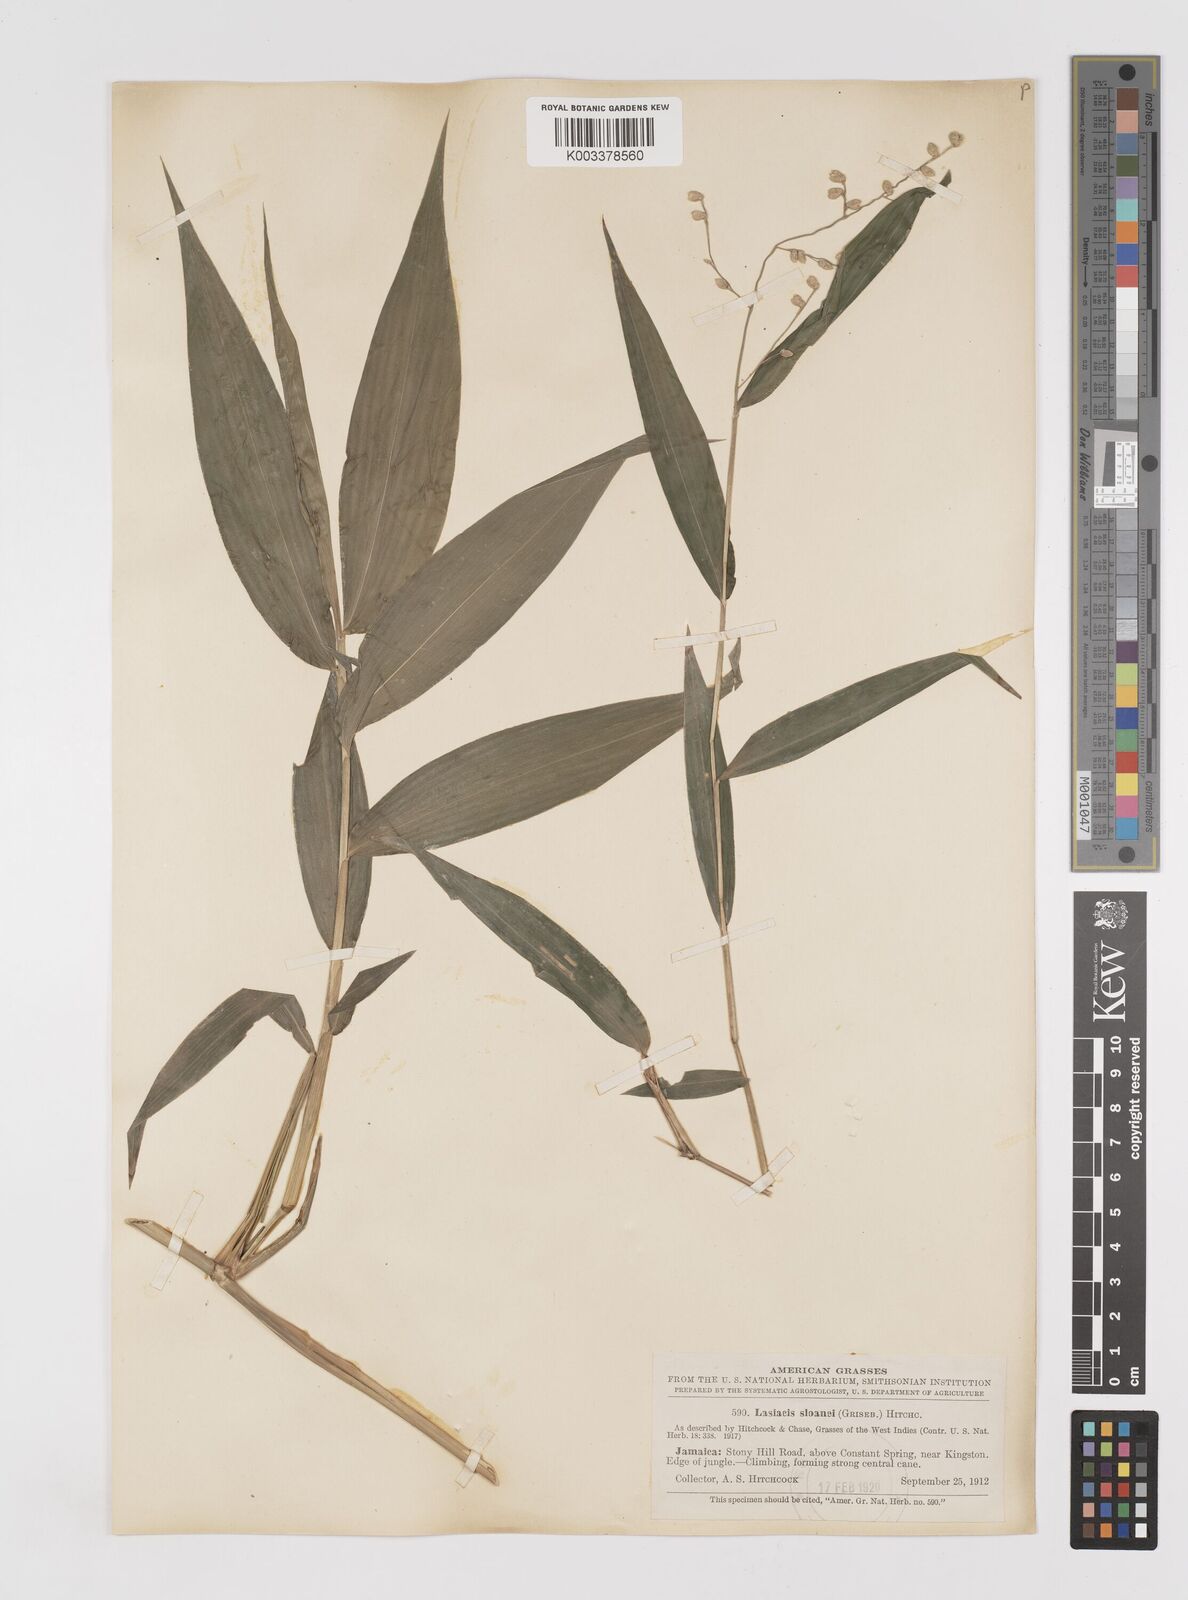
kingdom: Plantae
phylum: Tracheophyta
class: Liliopsida
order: Poales
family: Poaceae
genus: Lasiacis
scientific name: Lasiacis sloanei
